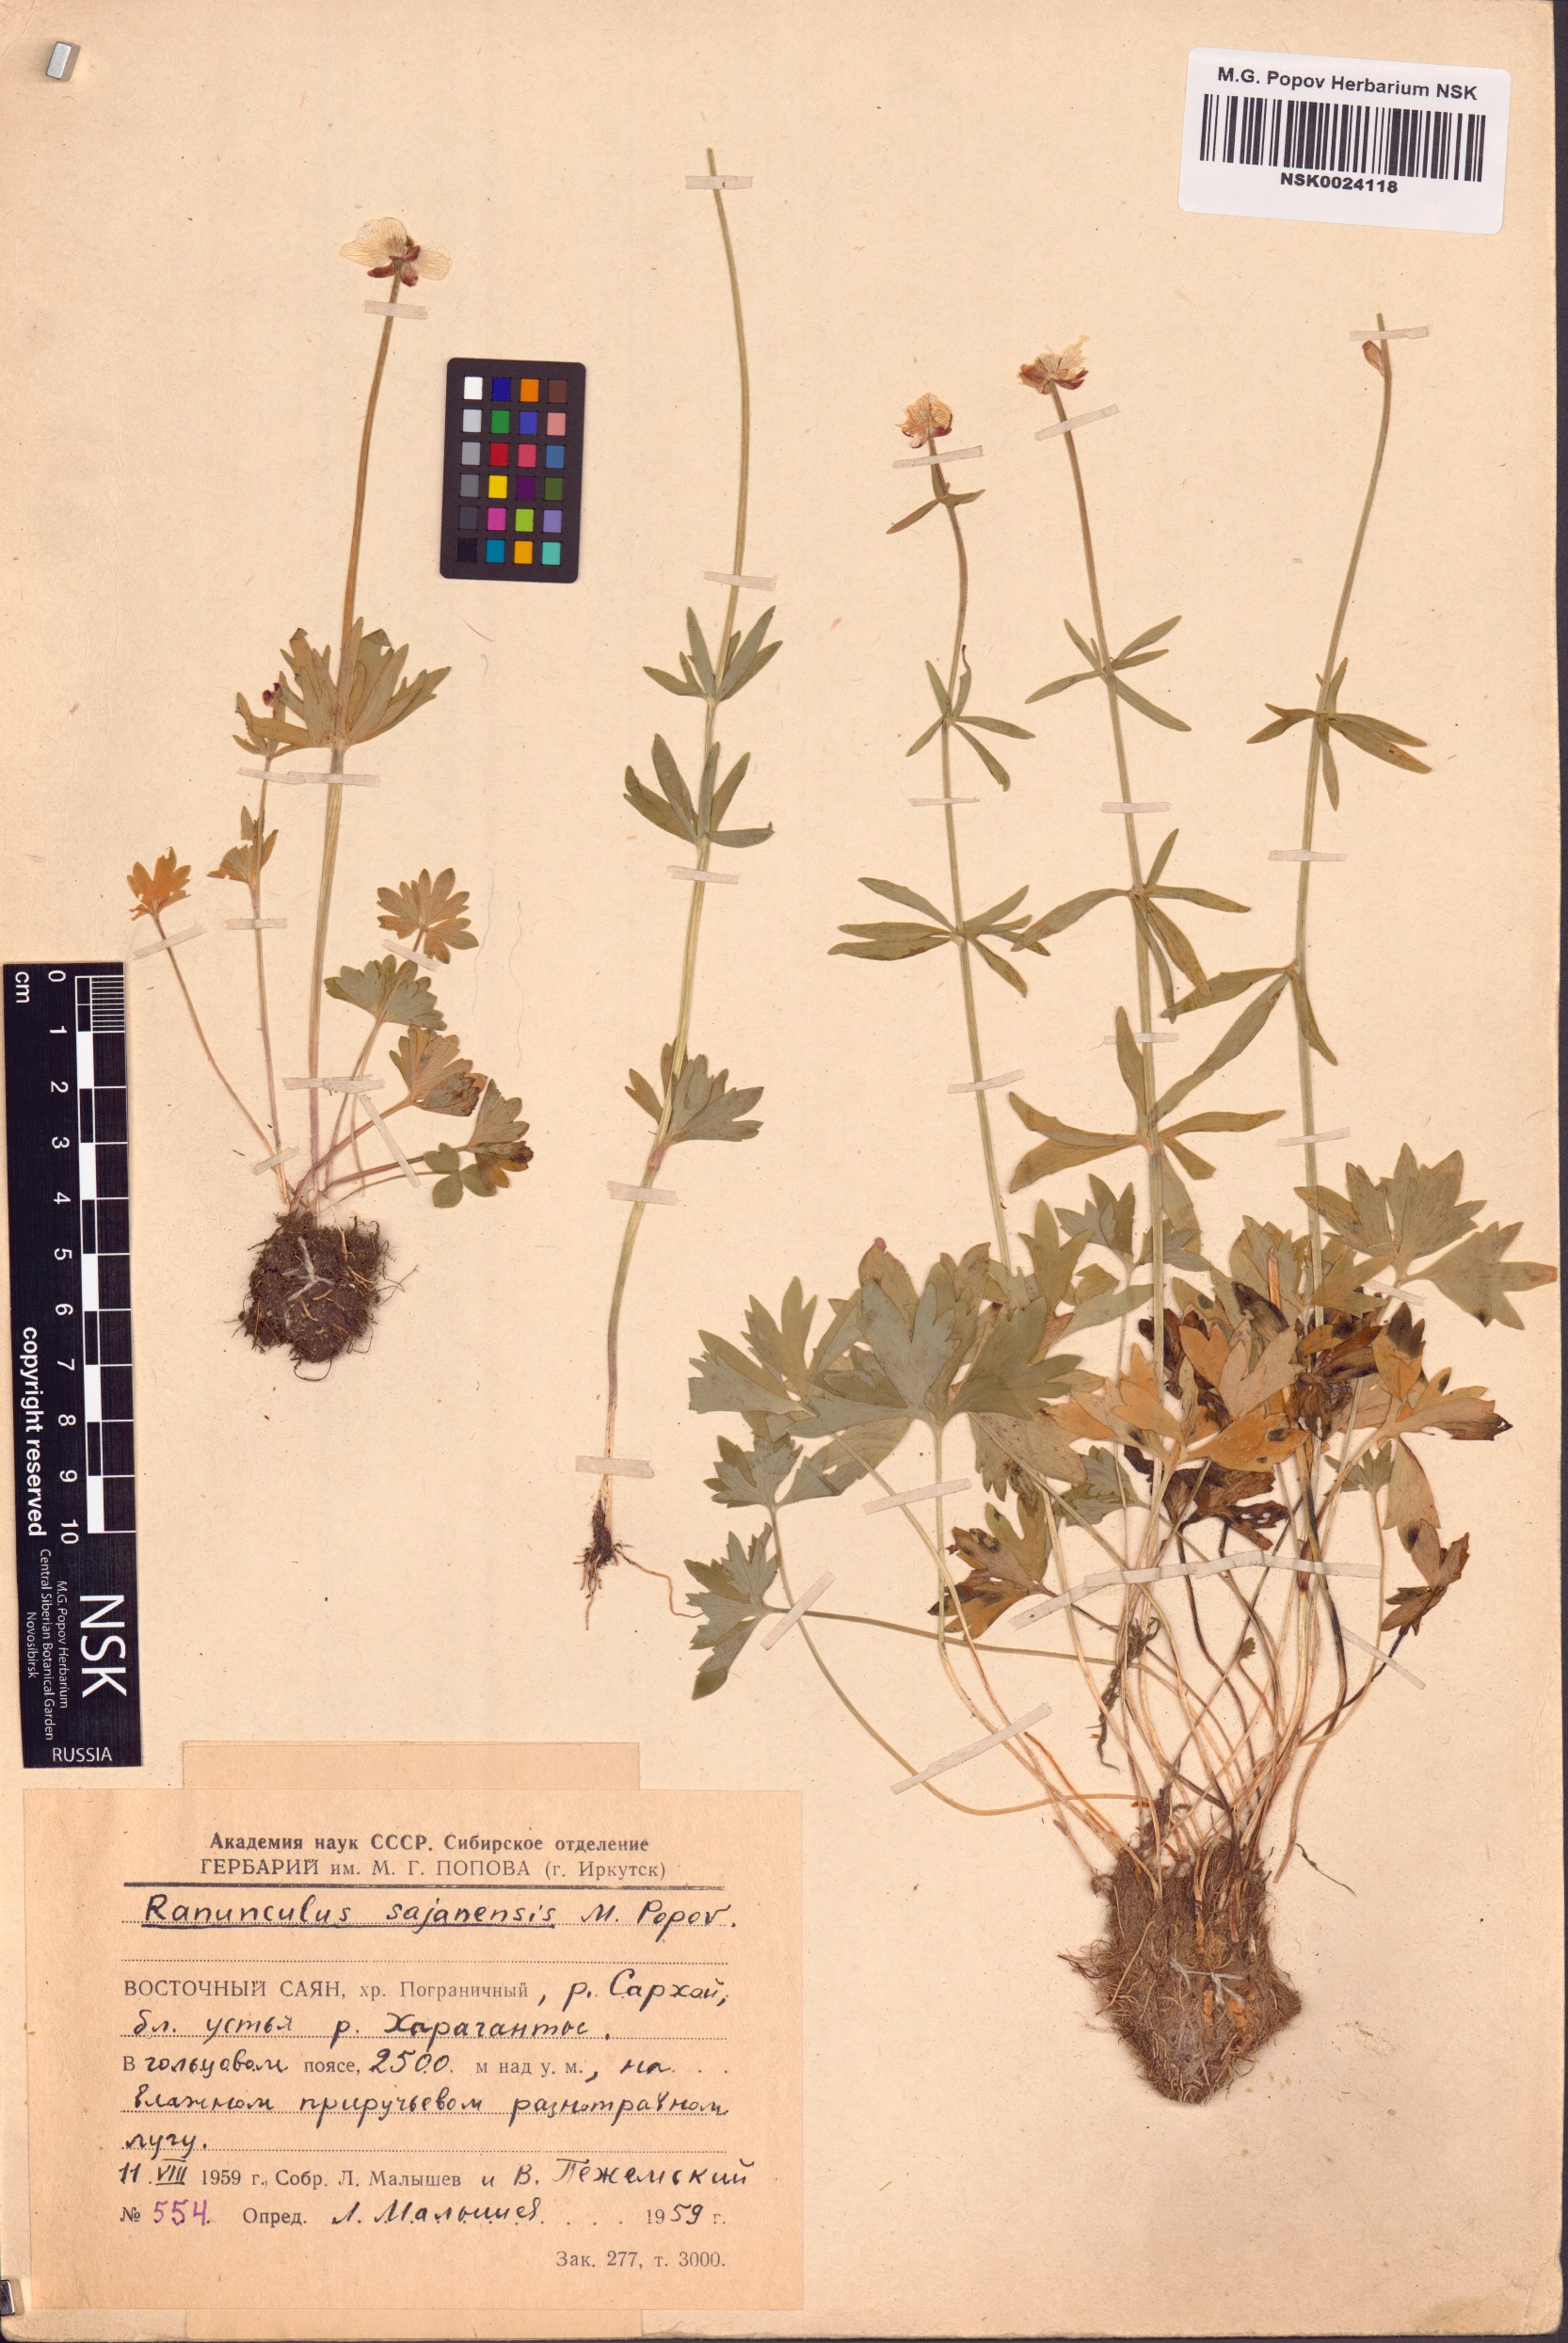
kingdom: Plantae
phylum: Tracheophyta
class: Magnoliopsida
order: Ranunculales
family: Ranunculaceae
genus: Ranunculus
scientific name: Ranunculus sajanensis
